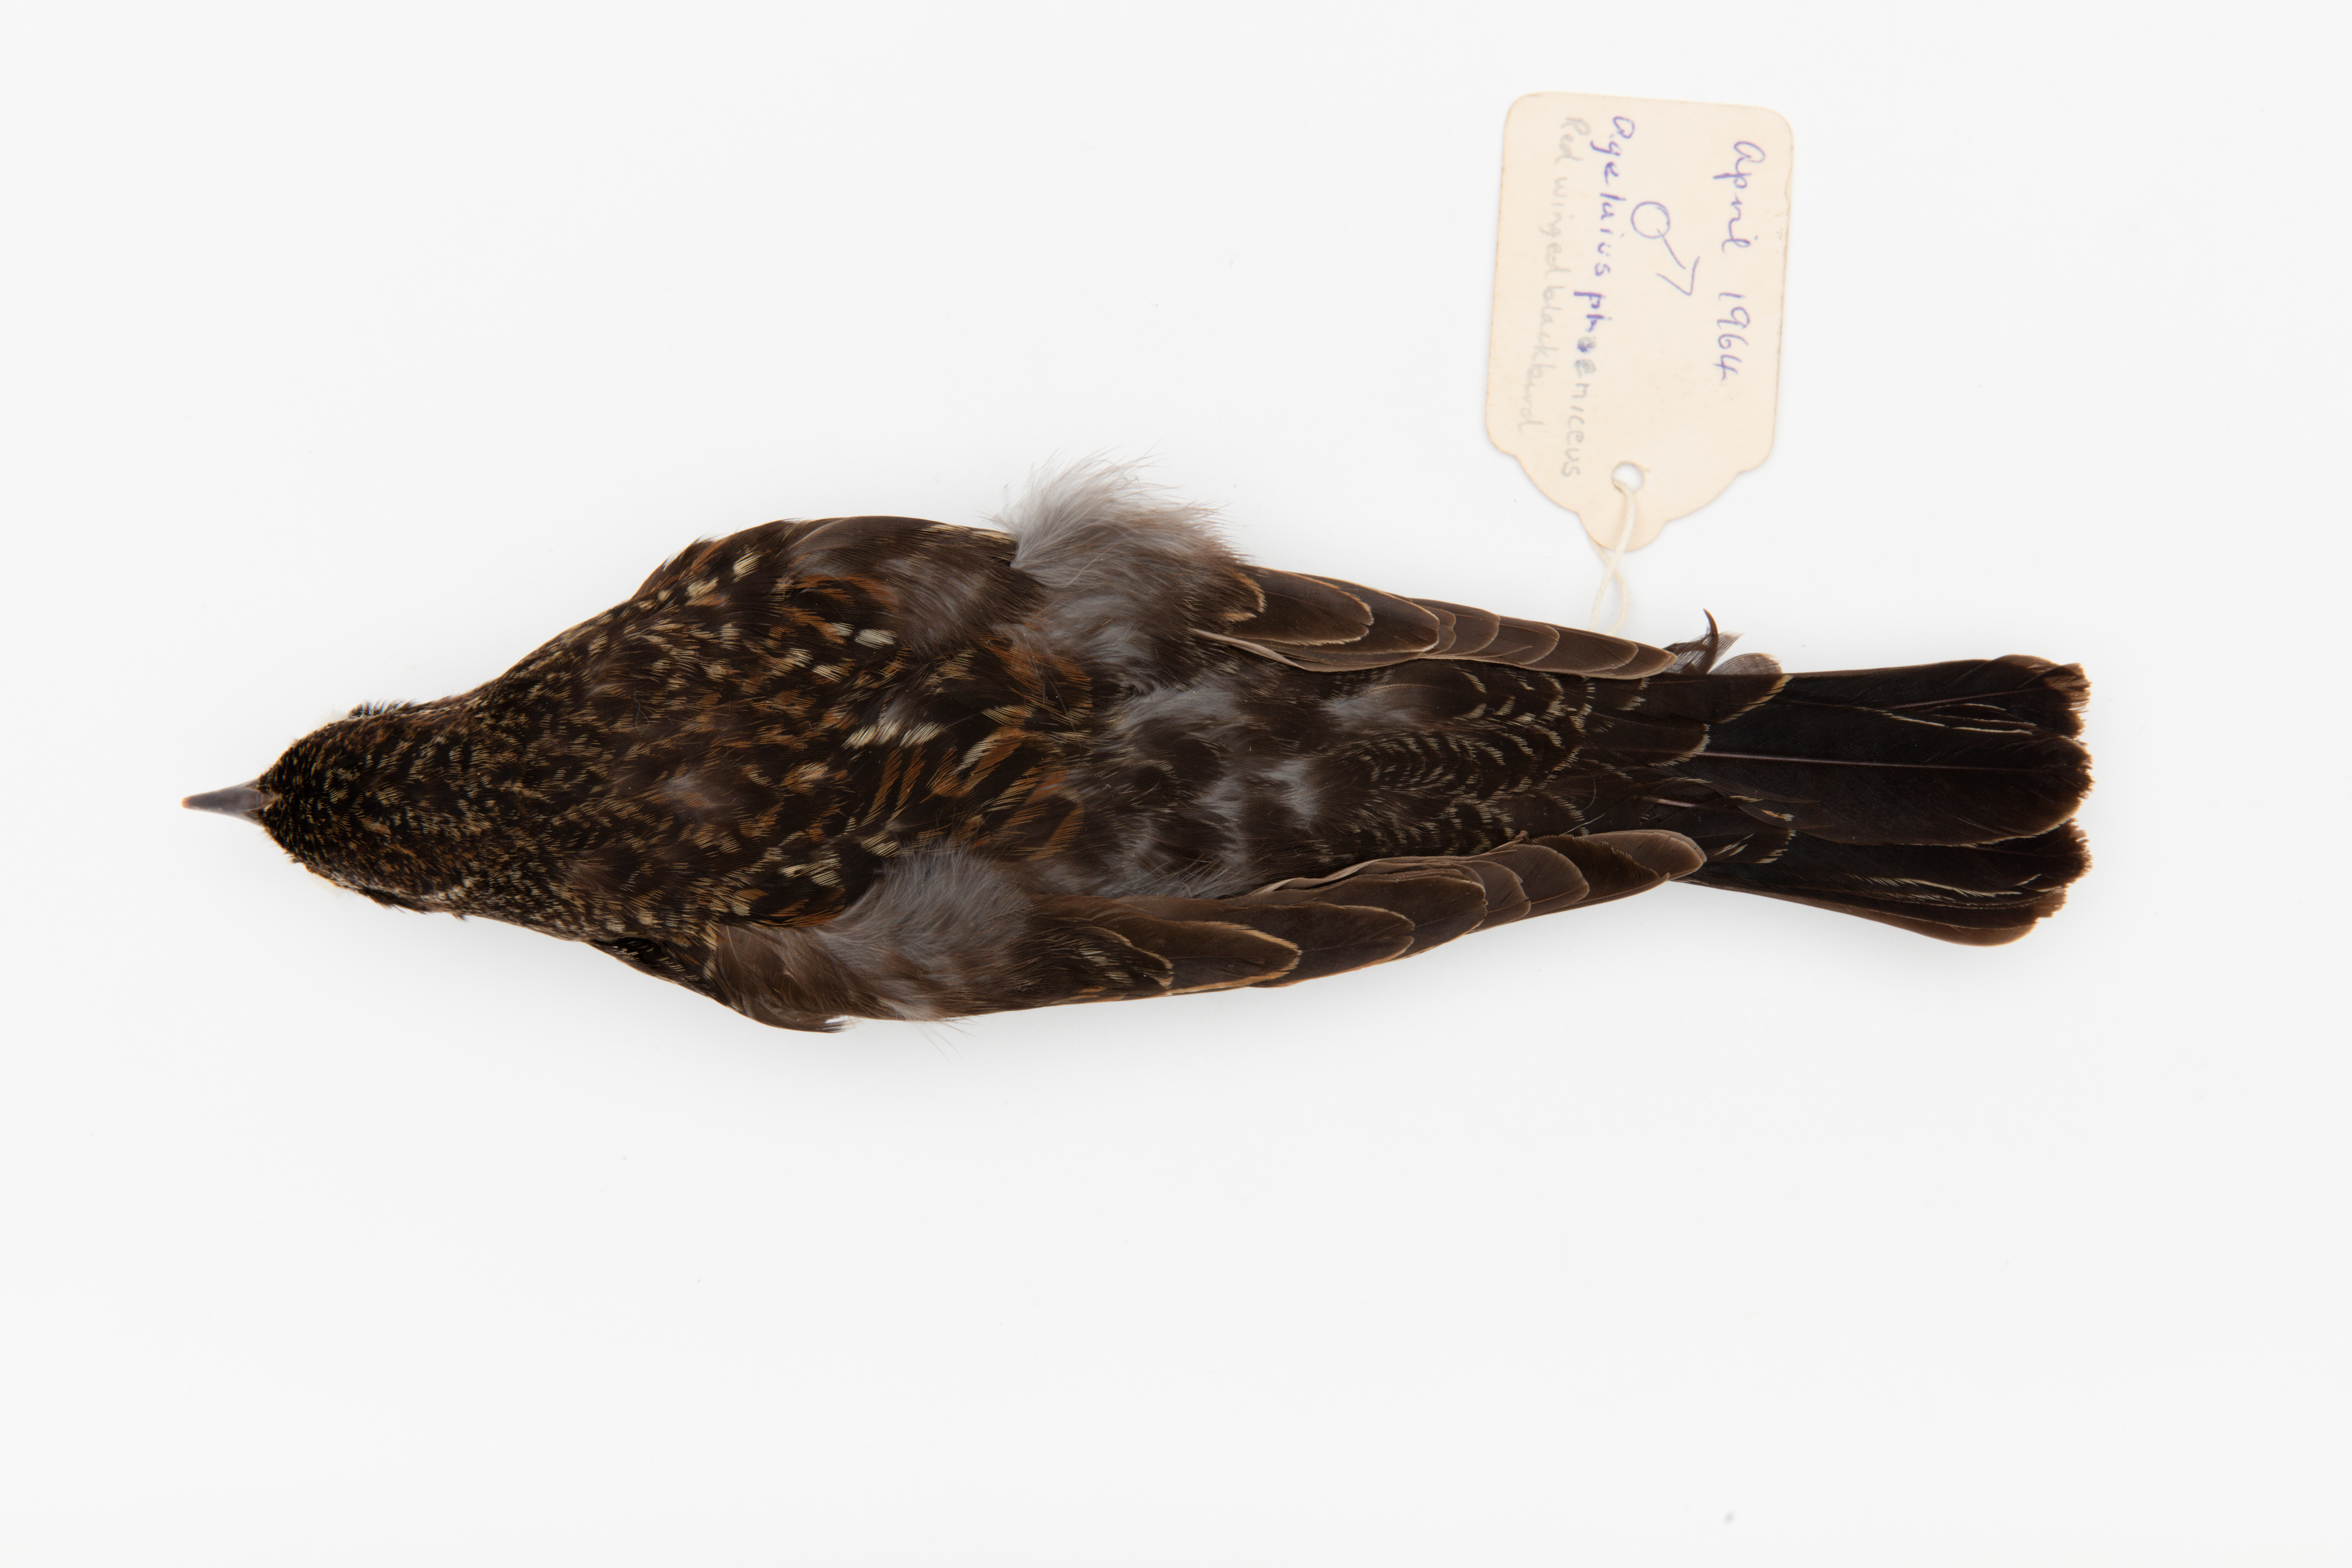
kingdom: Animalia
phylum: Chordata
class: Aves
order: Passeriformes
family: Icteridae
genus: Agelaius
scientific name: Agelaius phoeniceus
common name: Red-winged blackbird
